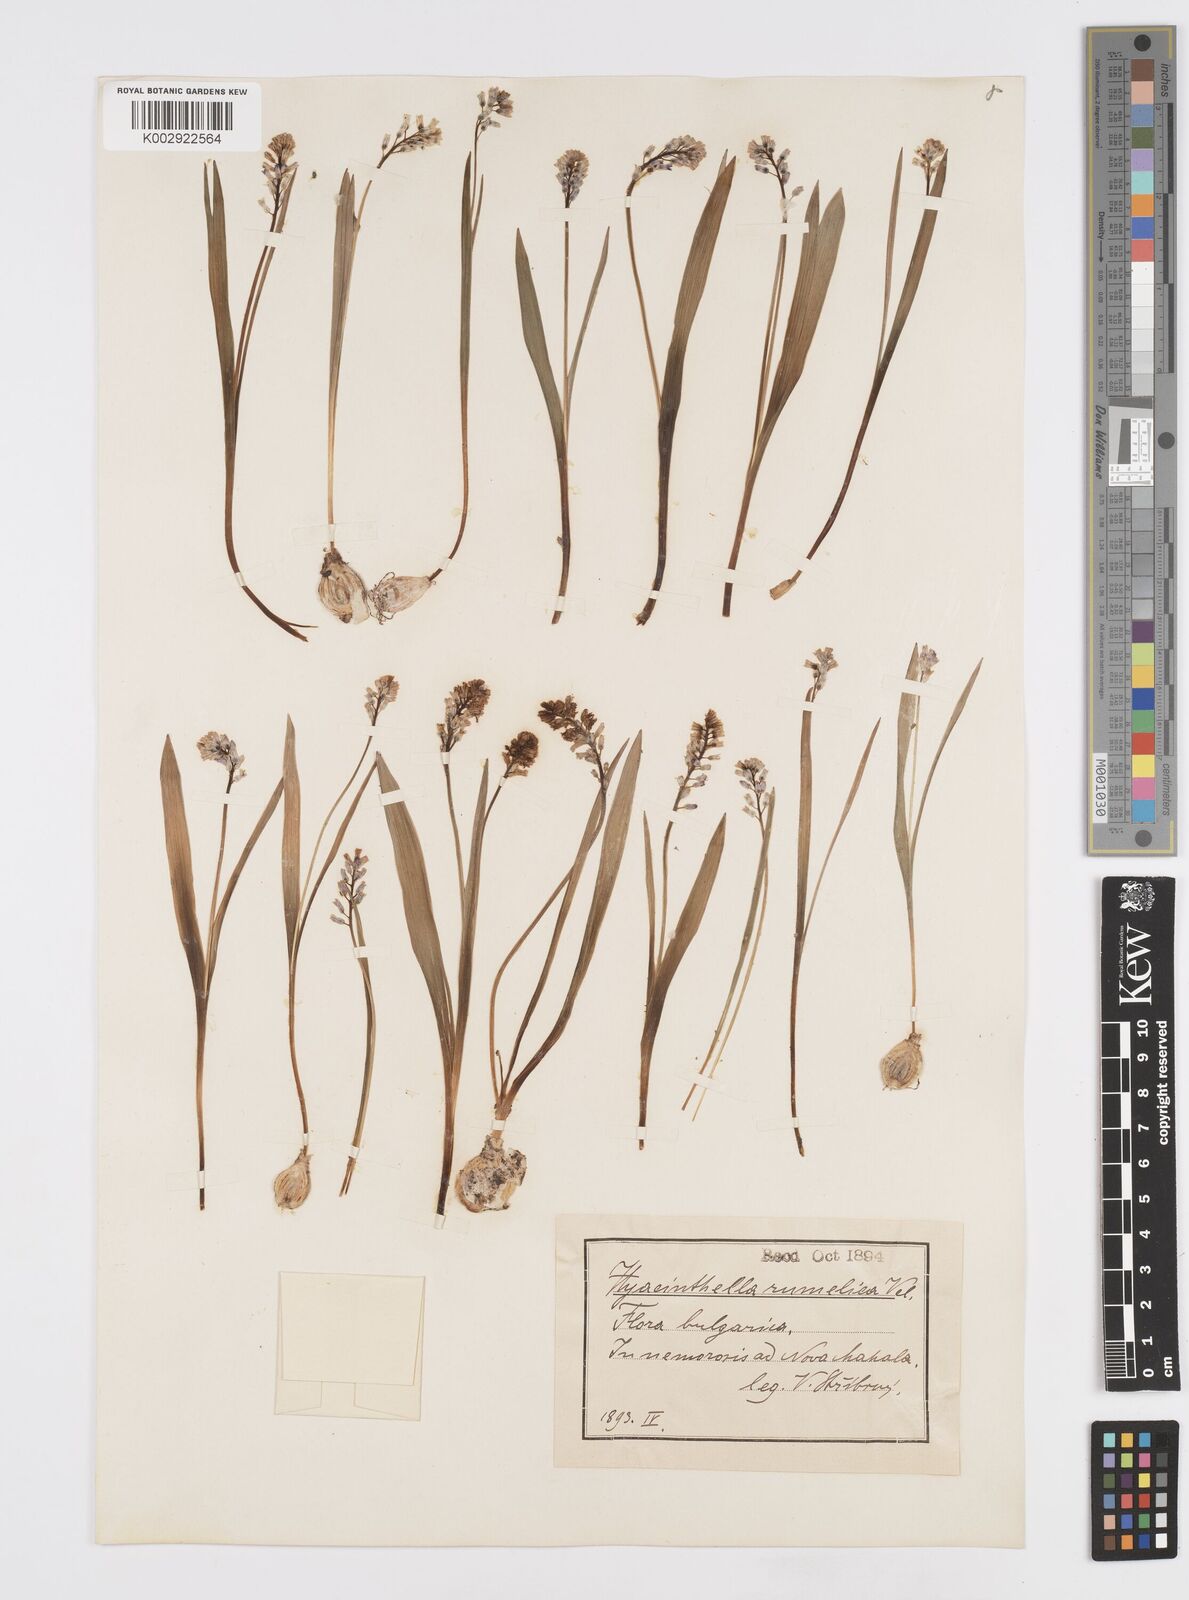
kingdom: Plantae
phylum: Tracheophyta
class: Liliopsida
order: Asparagales
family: Asparagaceae
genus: Hyacinthella
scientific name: Hyacinthella leucophaea
